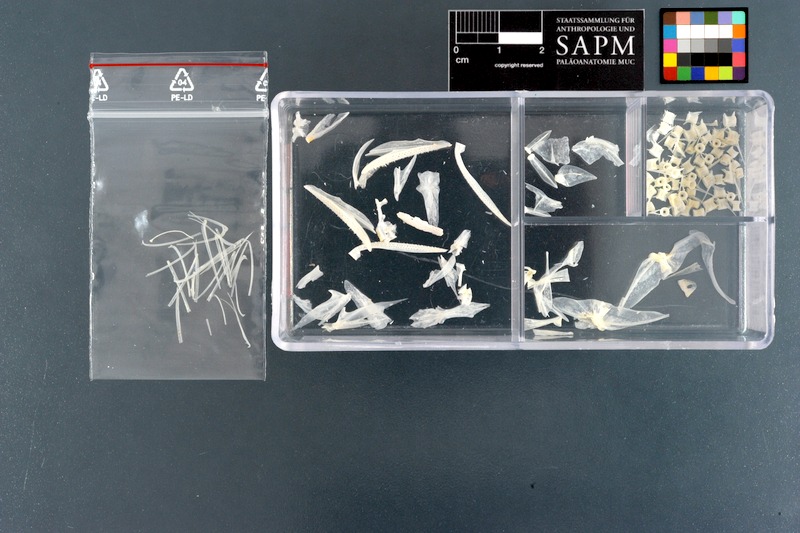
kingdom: Animalia
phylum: Chordata
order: Aulopiformes
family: Synodontidae
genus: Saurida
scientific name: Saurida undosquamis
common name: Brushtooth lizardfish
